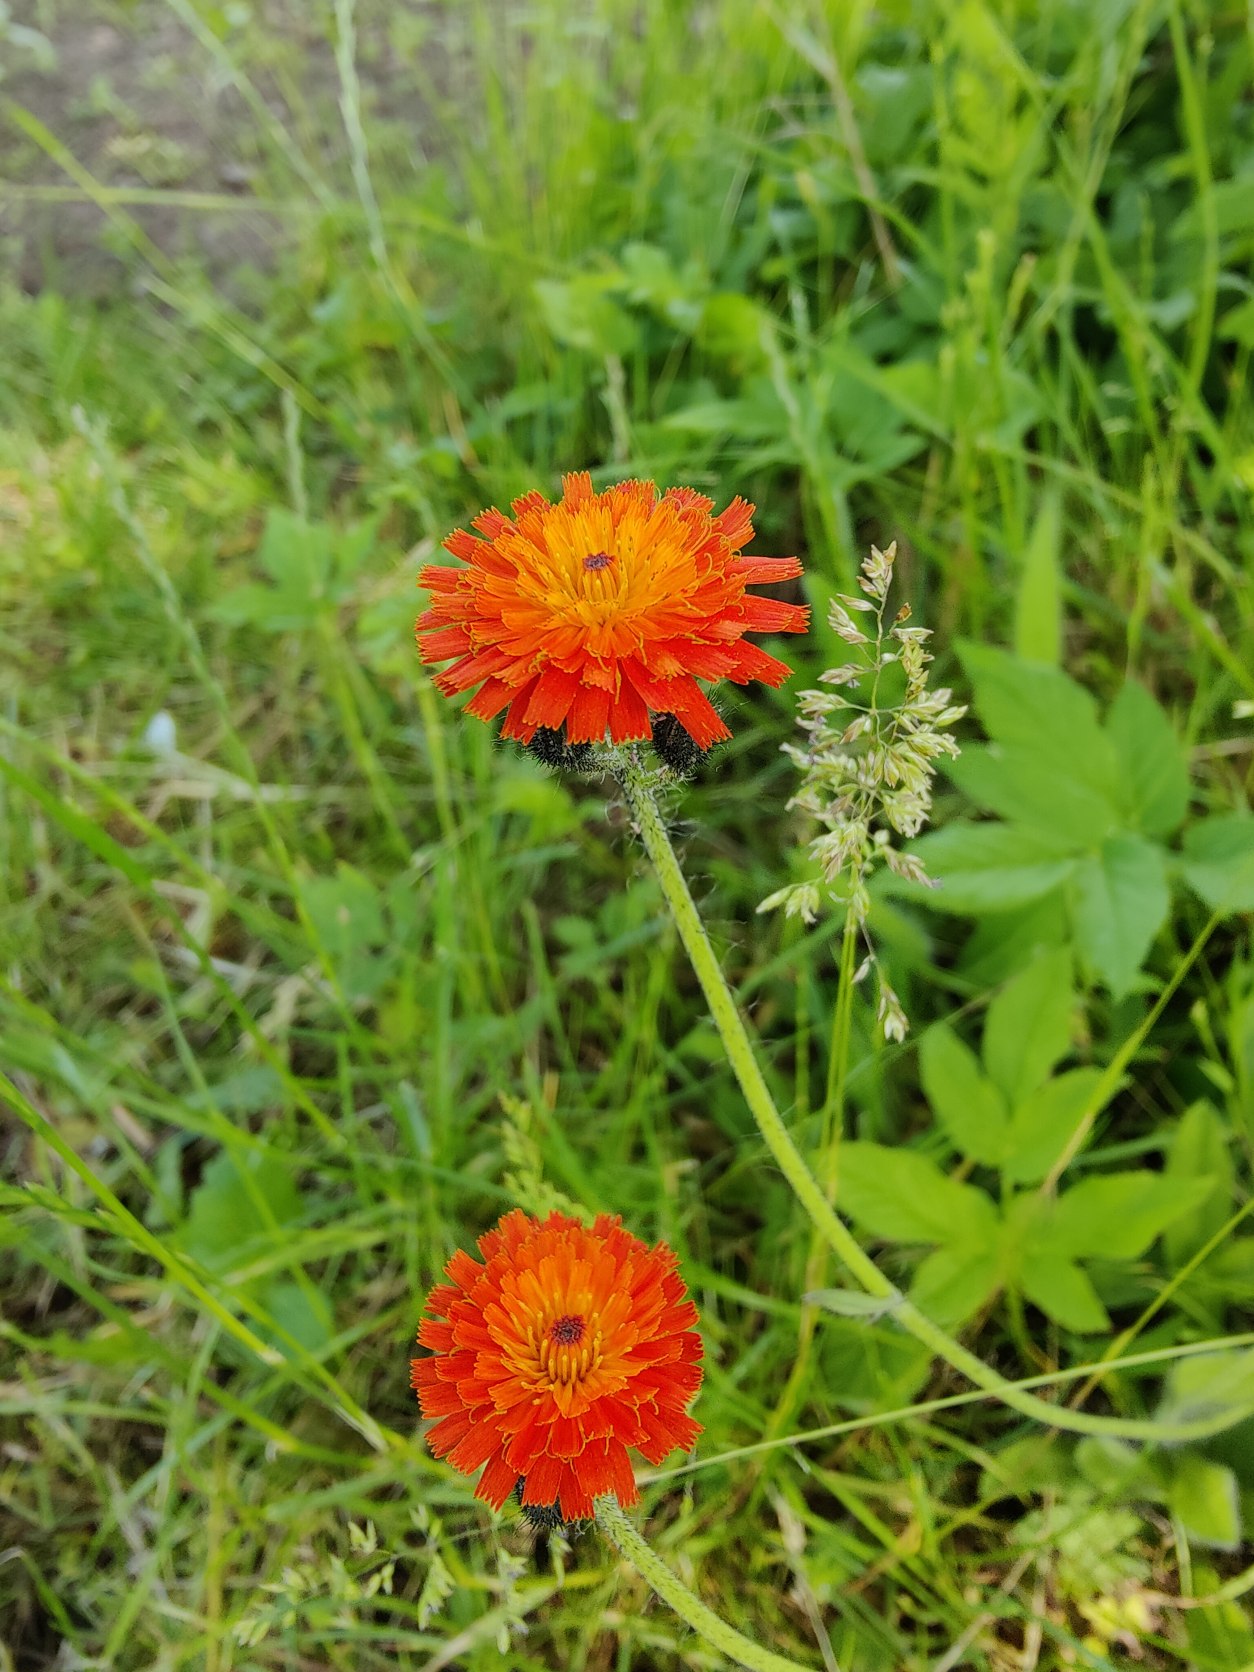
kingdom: Plantae
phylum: Tracheophyta
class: Magnoliopsida
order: Asterales
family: Asteraceae
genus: Pilosella
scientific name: Pilosella aurantiaca
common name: Pomerans-høgeurt
